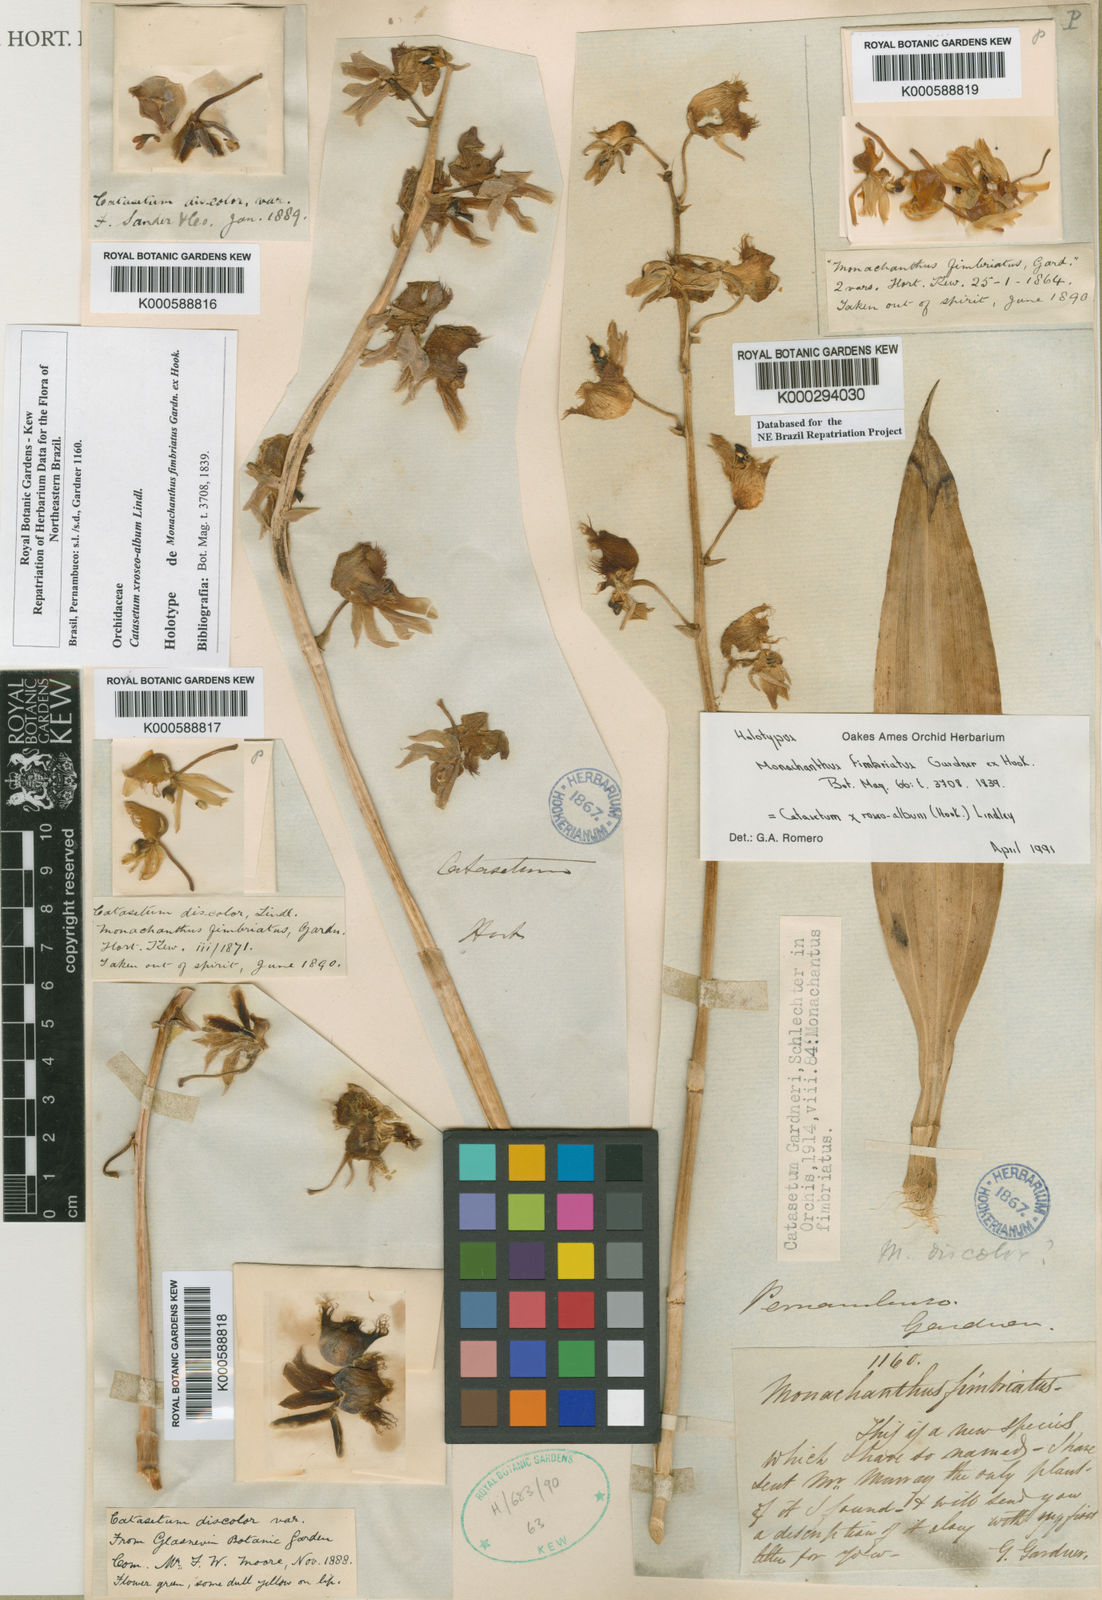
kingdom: Plantae
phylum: Tracheophyta
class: Liliopsida
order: Asparagales
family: Orchidaceae
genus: Catasetum
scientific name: Catasetum roseoalbum
